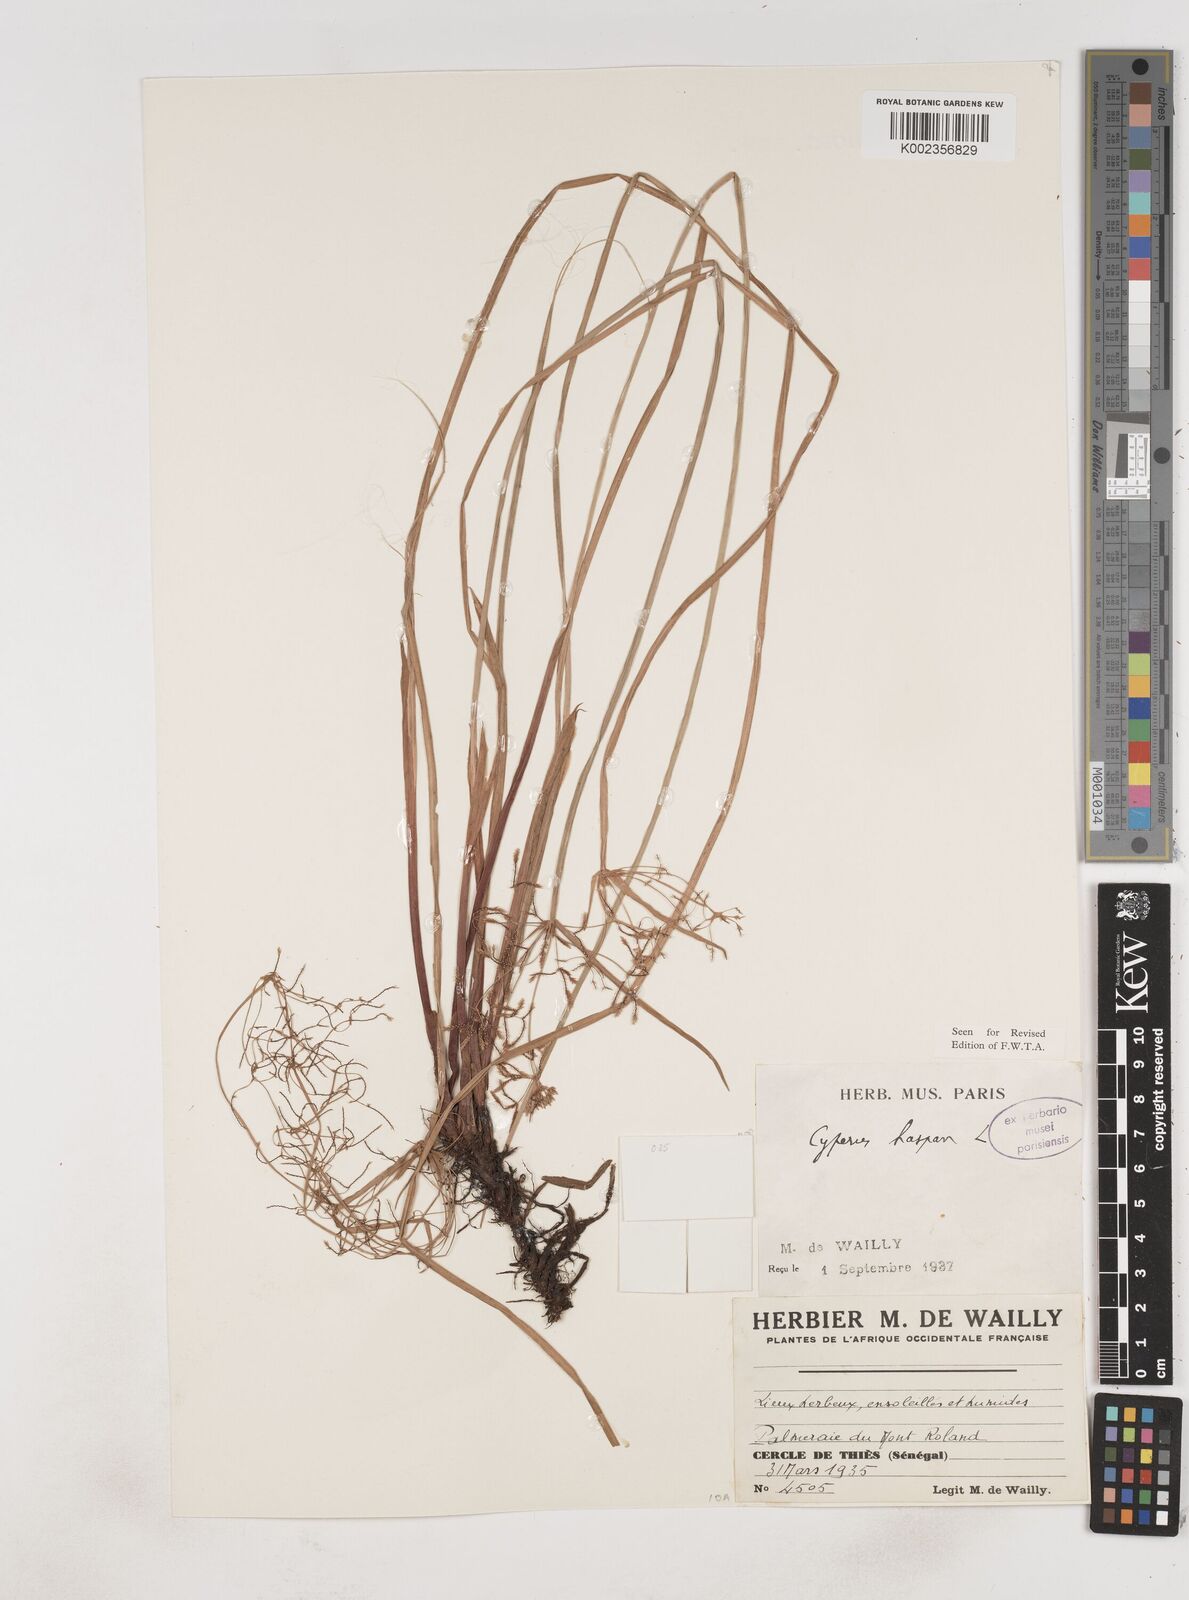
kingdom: Plantae
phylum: Tracheophyta
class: Liliopsida
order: Poales
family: Cyperaceae
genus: Cyperus
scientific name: Cyperus haspan
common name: Haspan flatsedge
